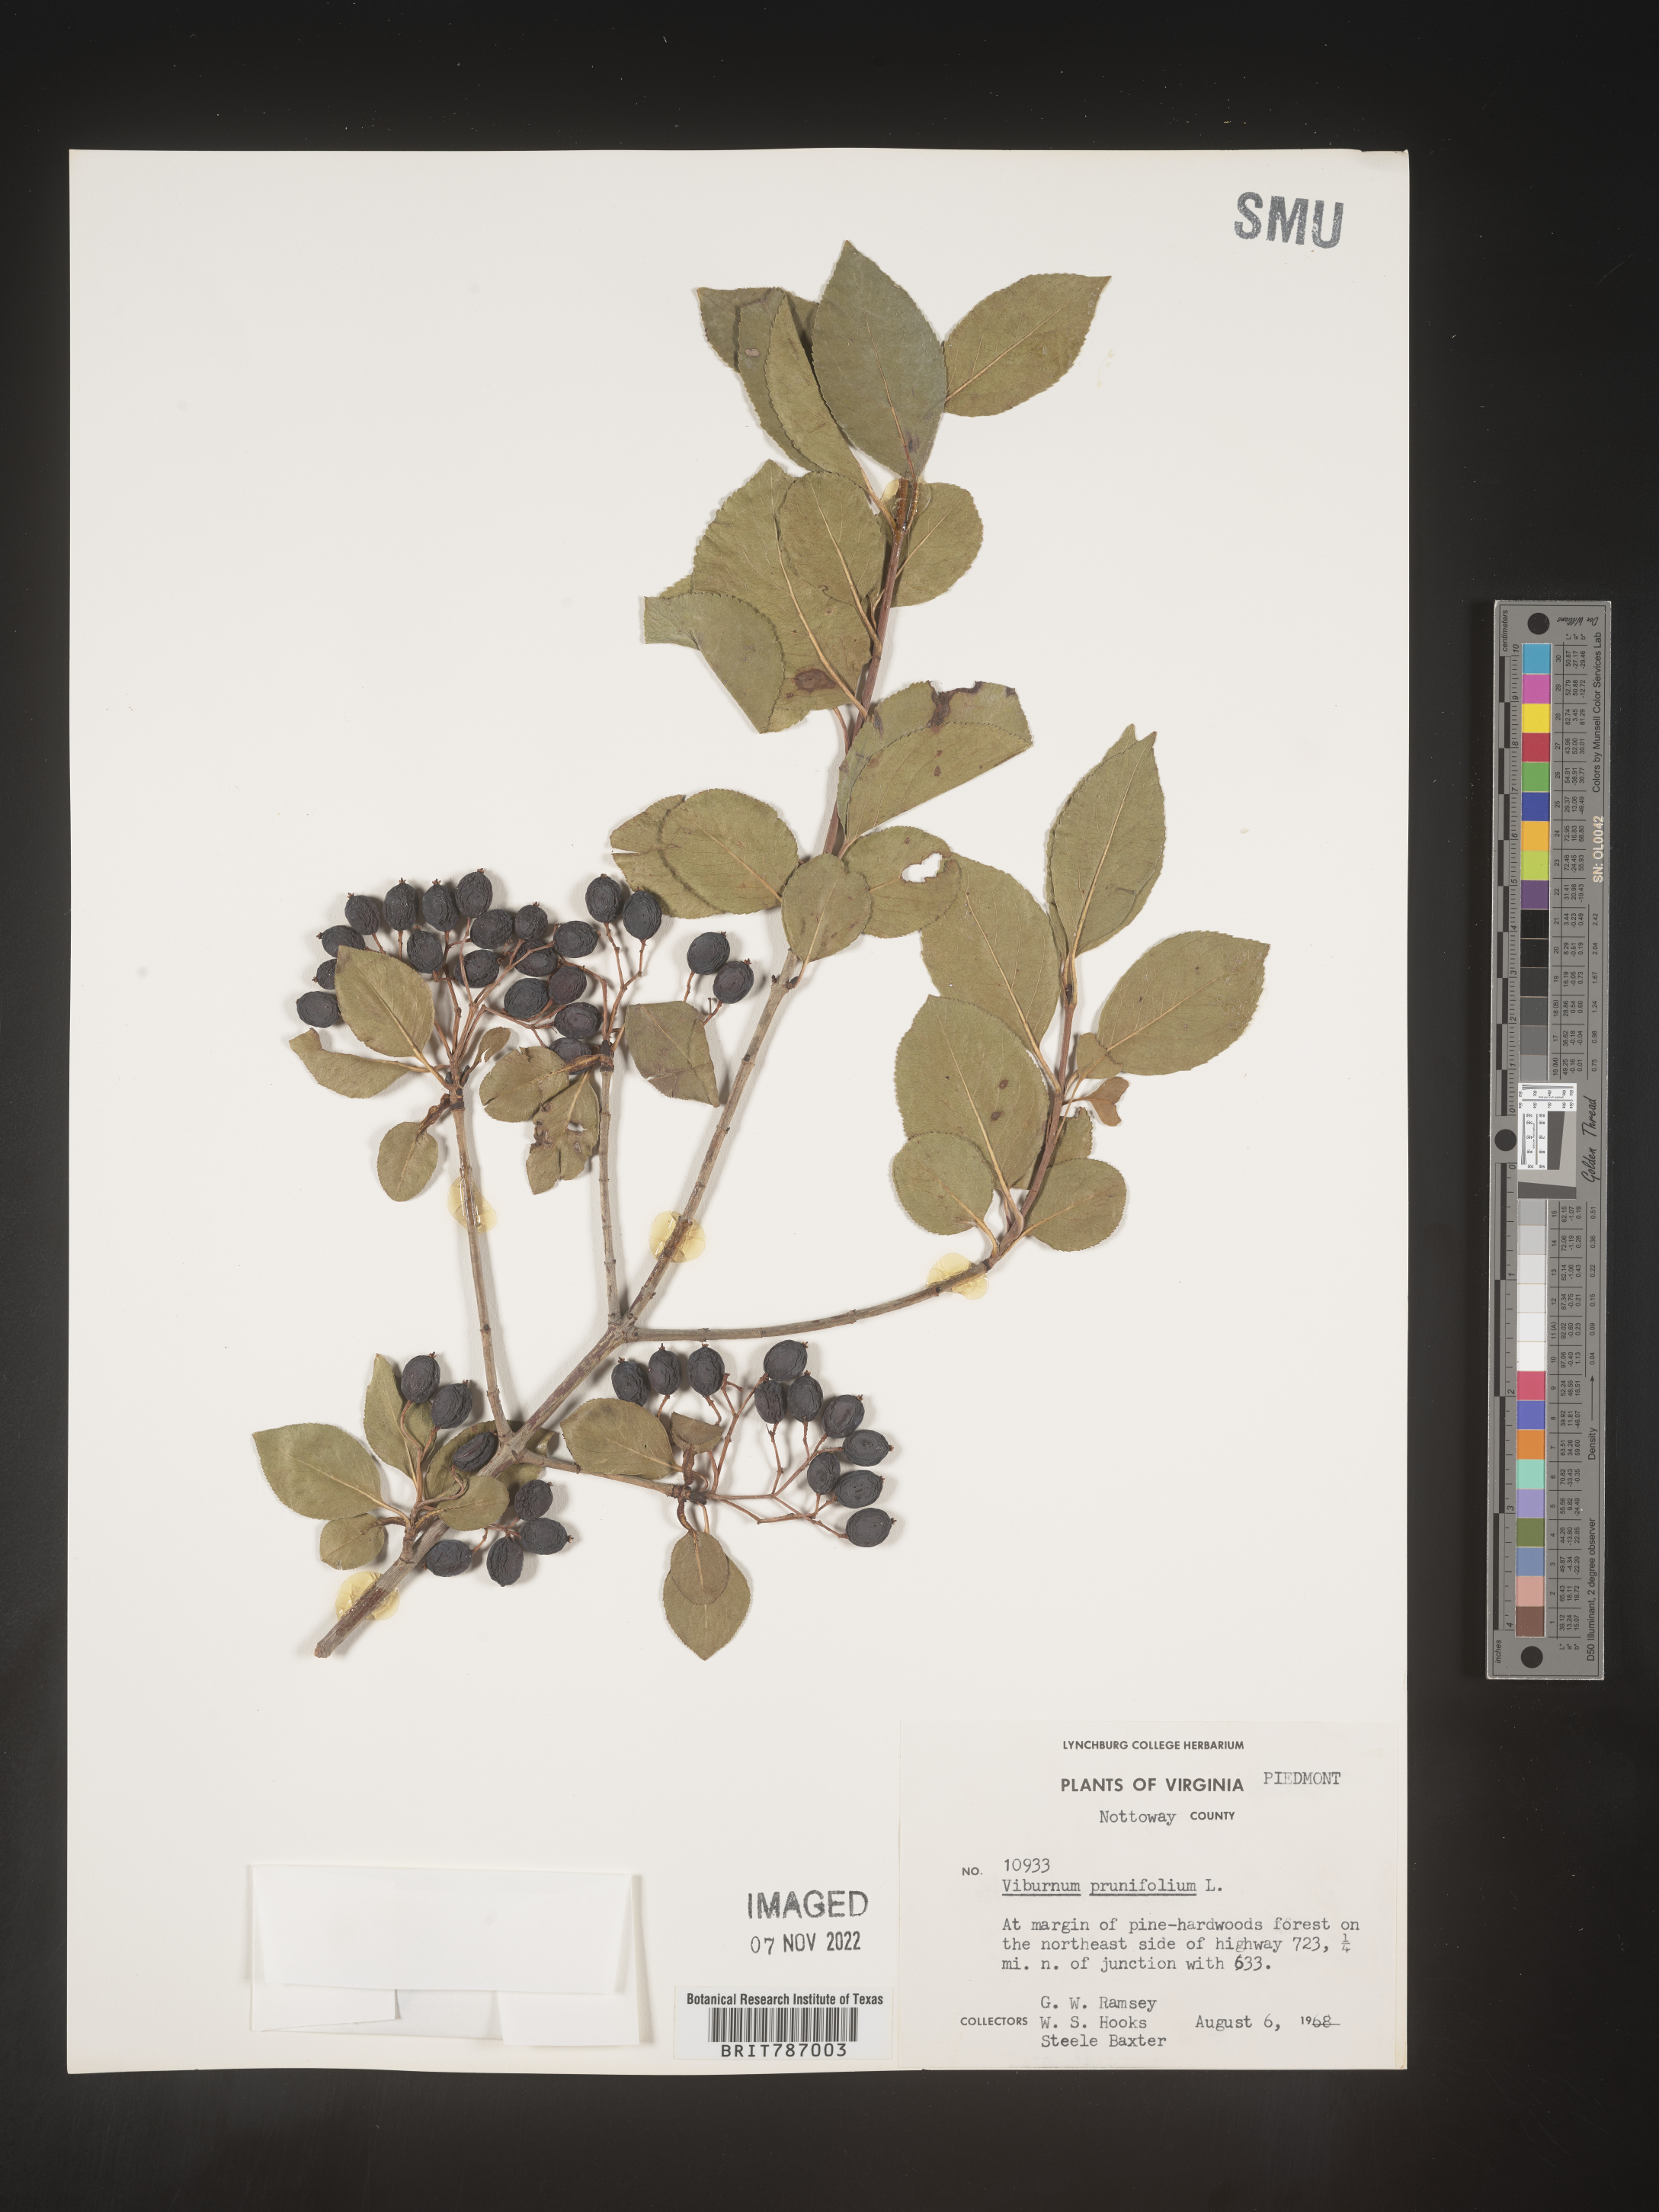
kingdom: Plantae
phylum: Tracheophyta
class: Magnoliopsida
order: Dipsacales
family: Viburnaceae
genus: Viburnum
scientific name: Viburnum prunifolium
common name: Black haw
